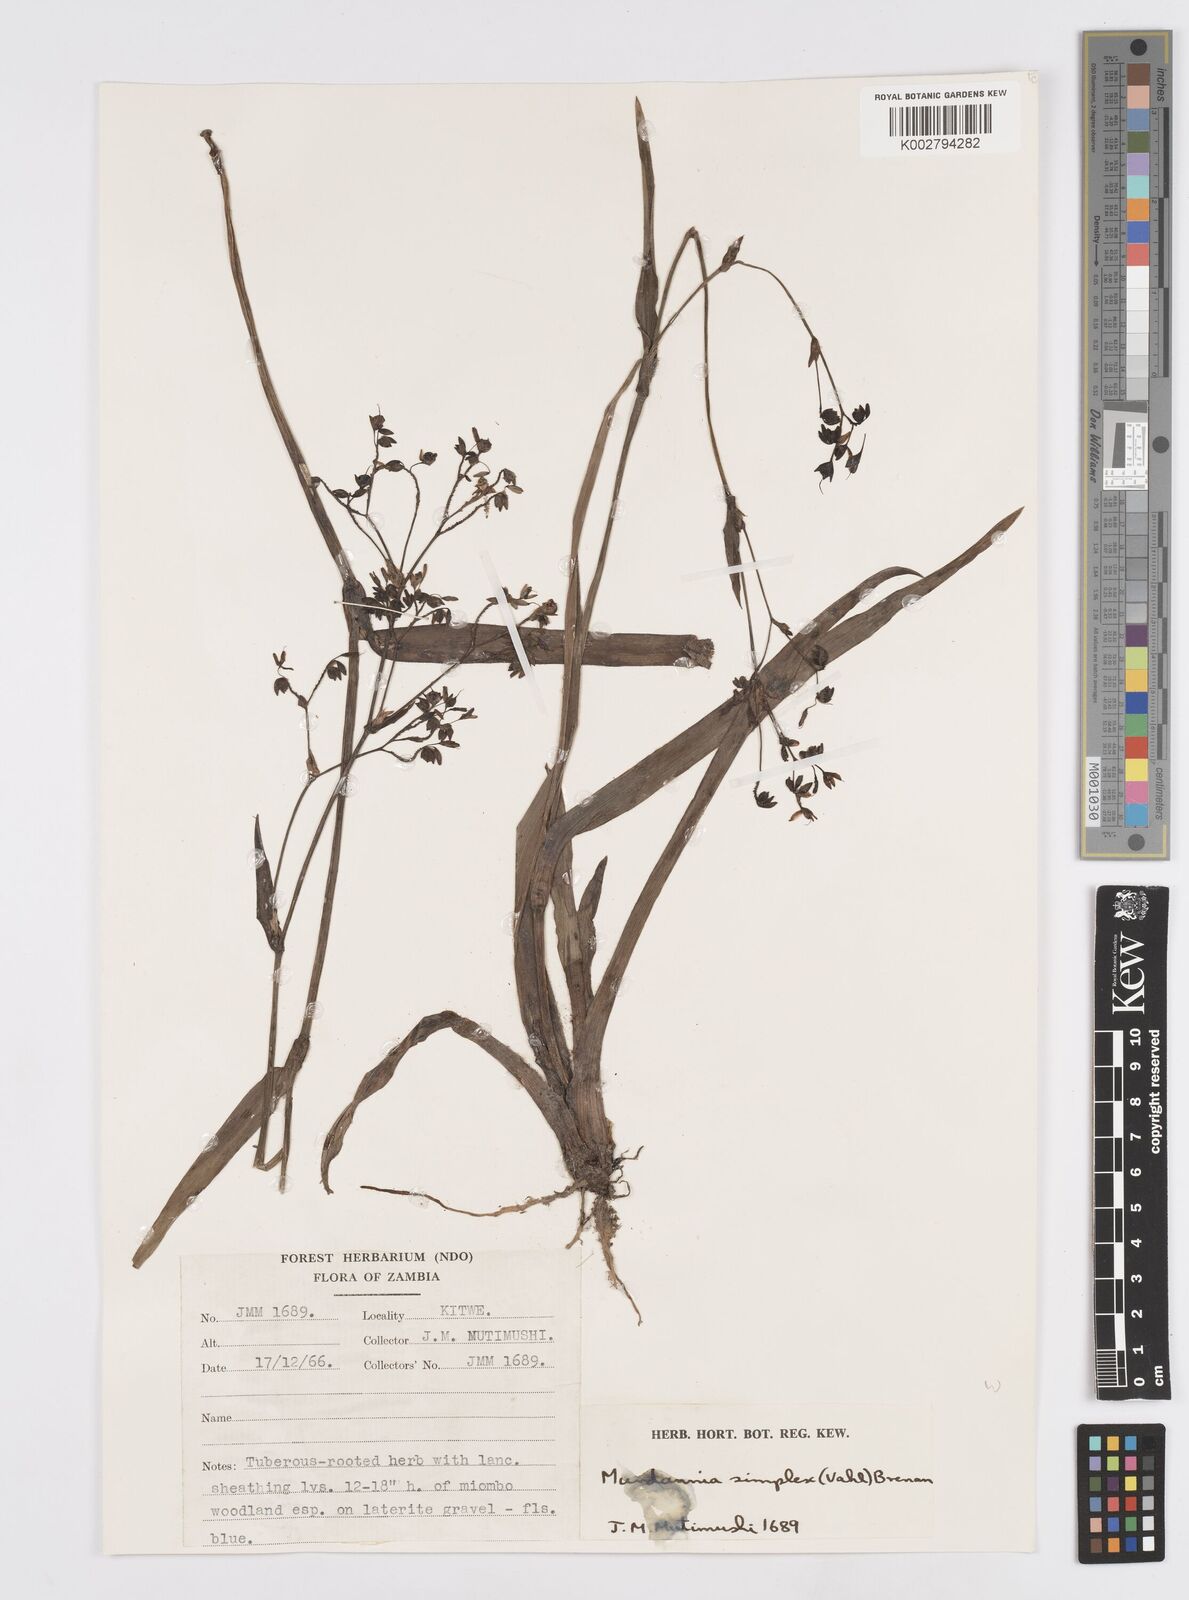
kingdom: Plantae
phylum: Tracheophyta
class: Liliopsida
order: Commelinales
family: Commelinaceae
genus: Murdannia
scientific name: Murdannia simplex
